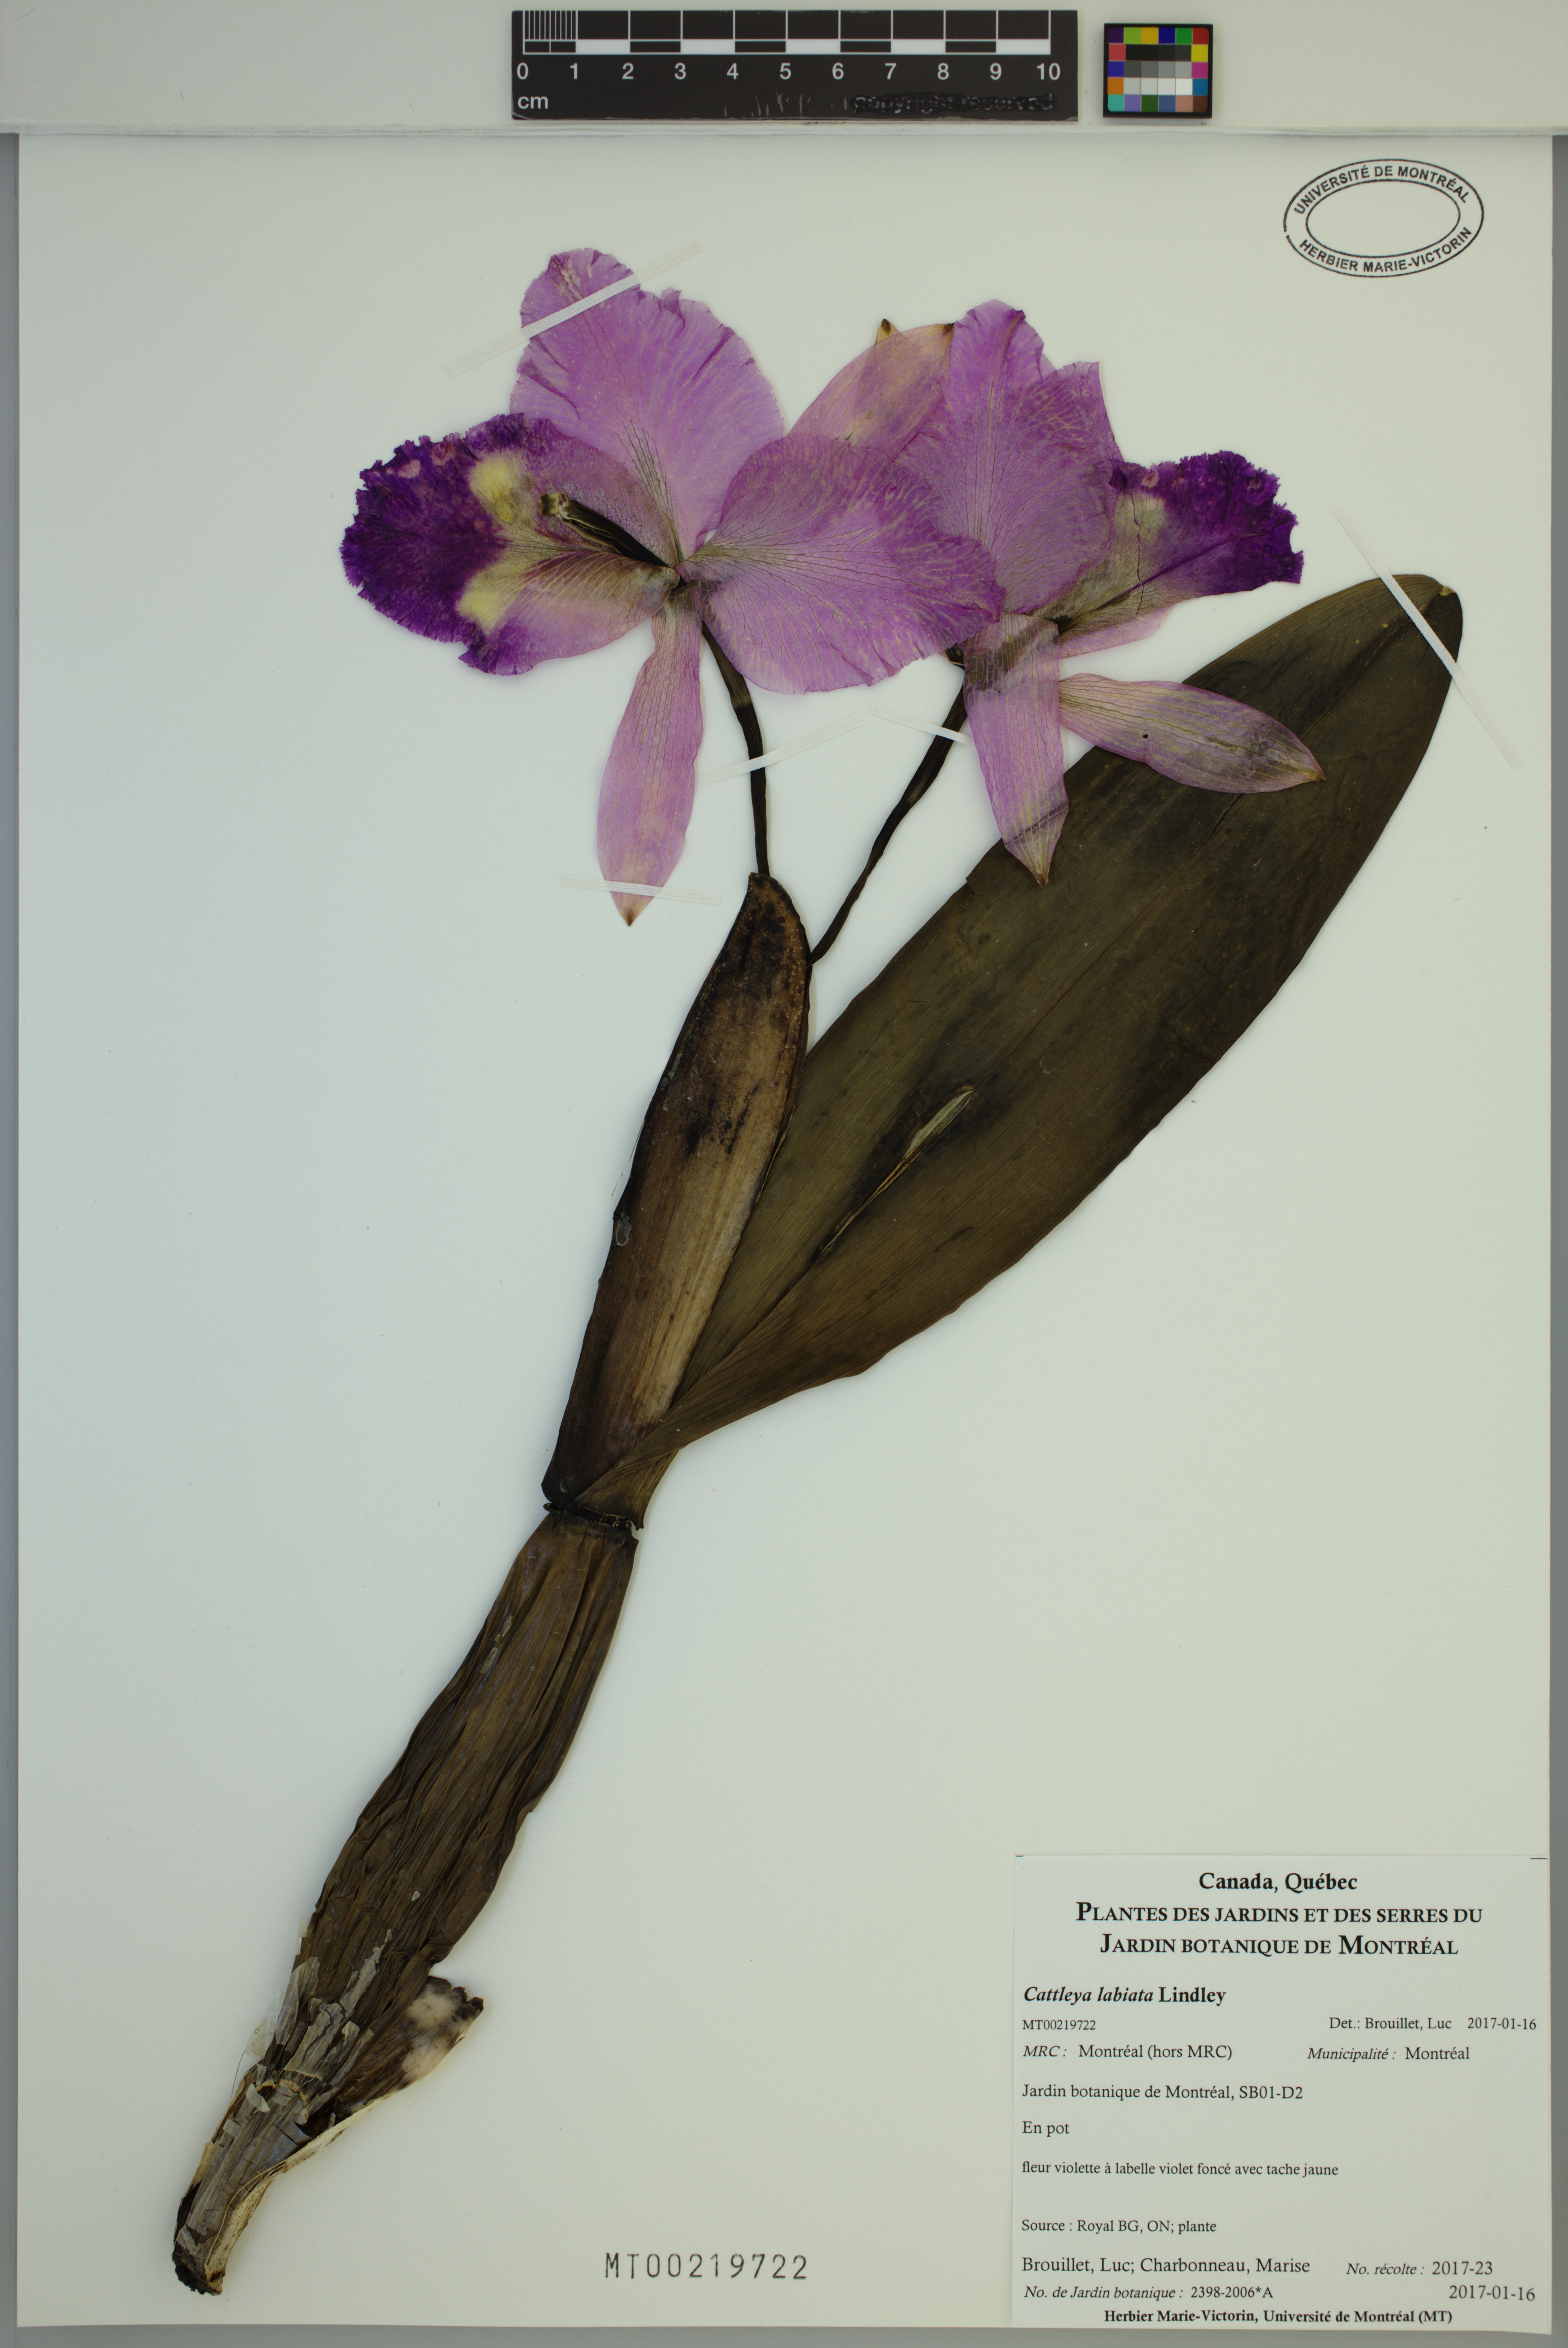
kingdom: Plantae
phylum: Tracheophyta
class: Liliopsida
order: Asparagales
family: Orchidaceae
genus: Cattleya
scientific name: Cattleya labiata
